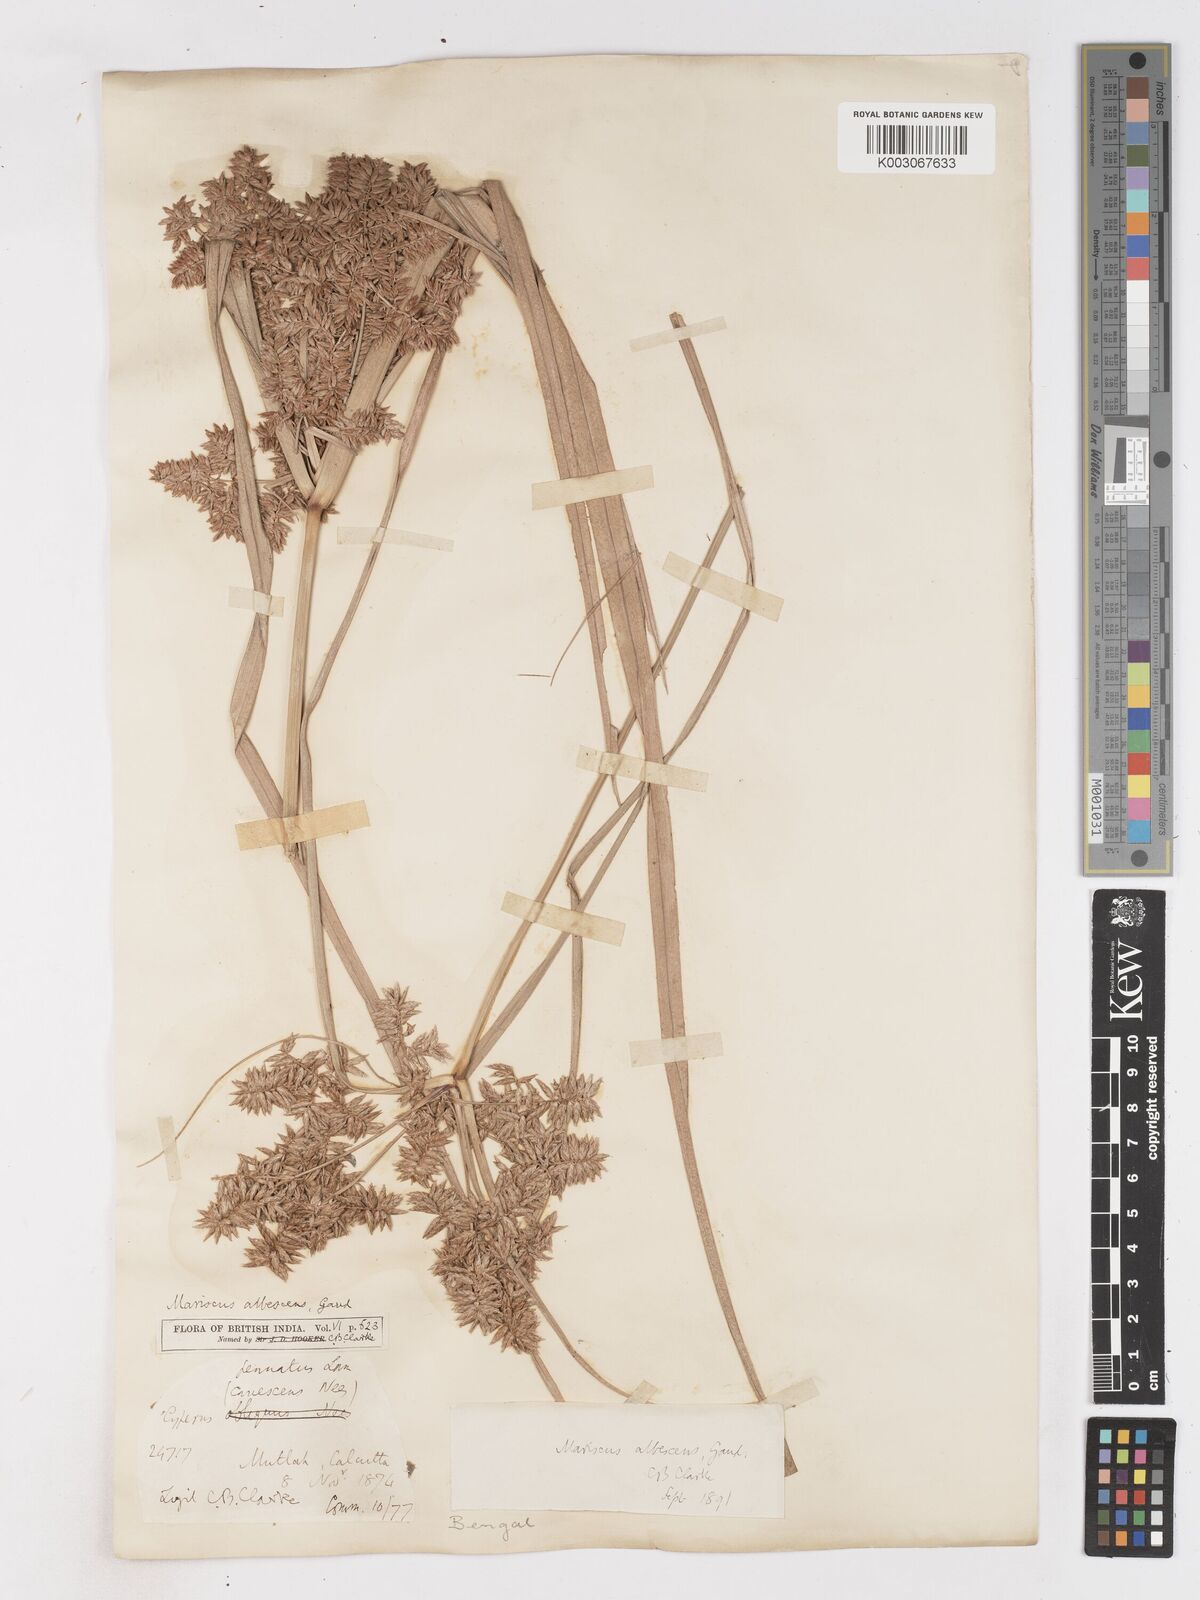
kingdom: Plantae
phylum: Tracheophyta
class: Liliopsida
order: Poales
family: Cyperaceae
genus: Cyperus
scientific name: Cyperus javanicus
